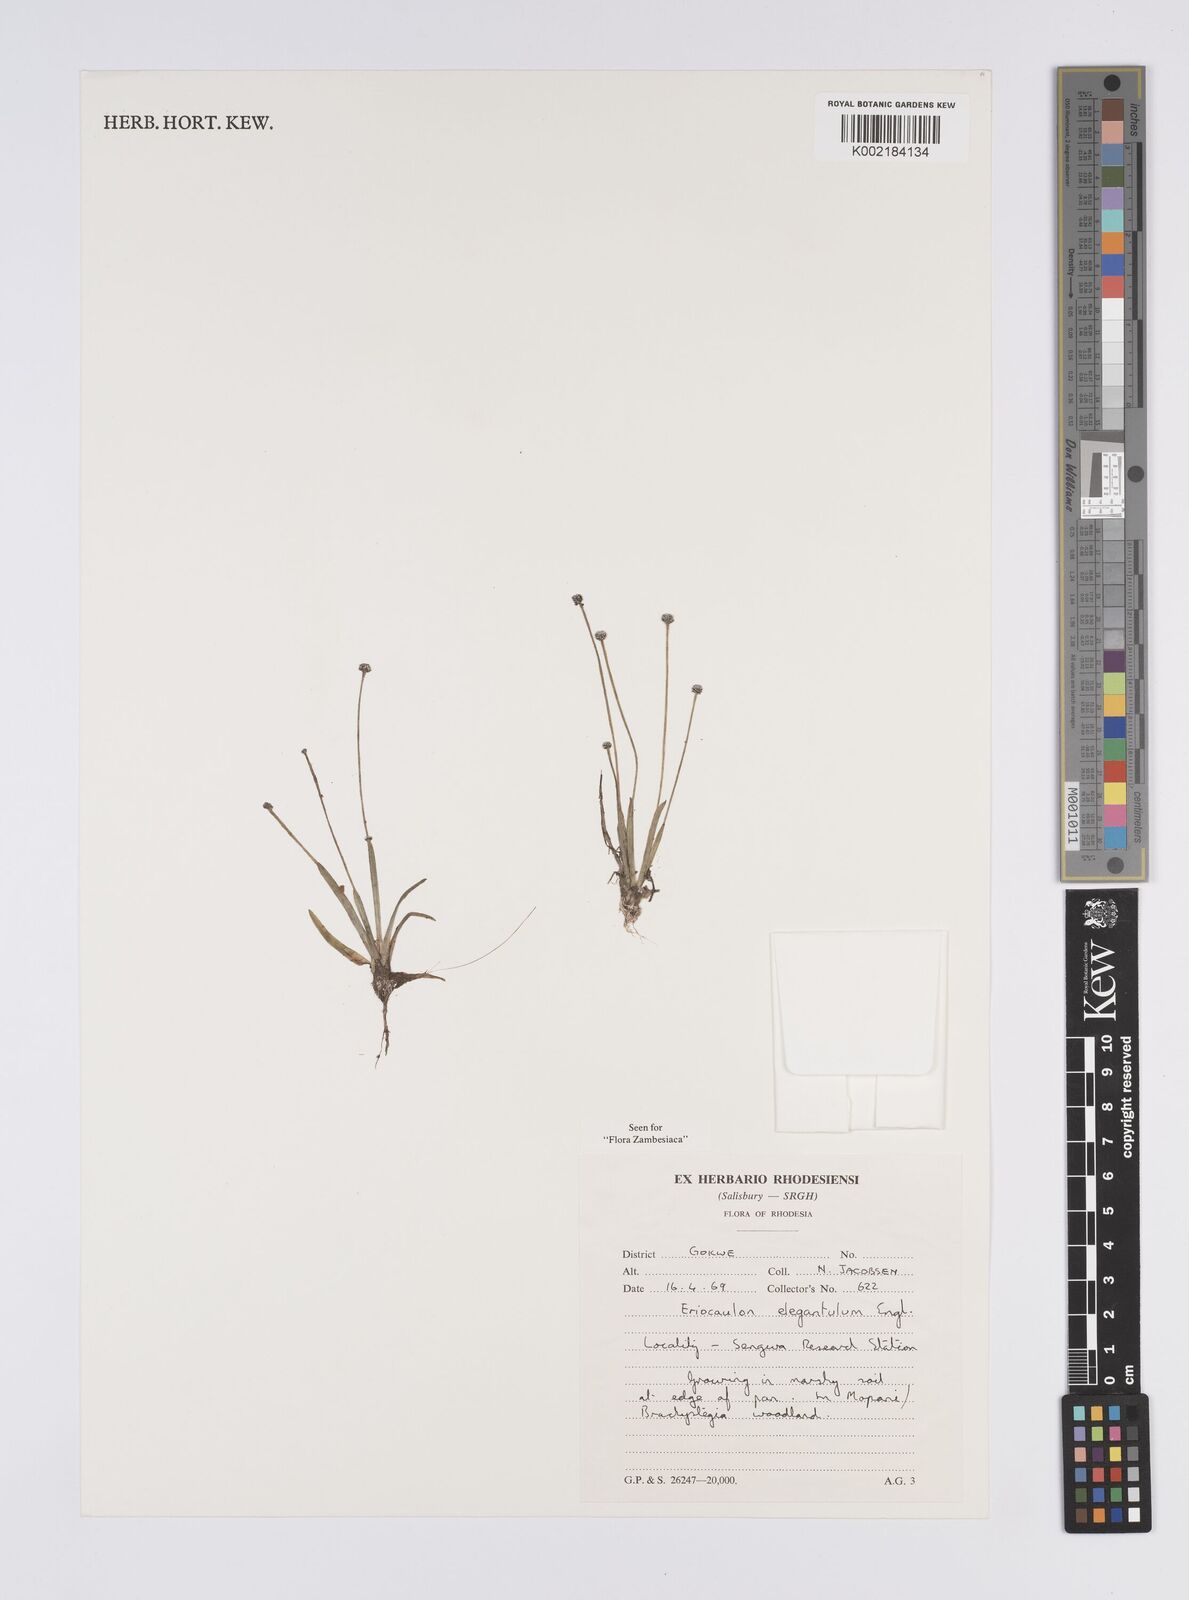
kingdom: Plantae
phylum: Tracheophyta
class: Liliopsida
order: Poales
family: Eriocaulaceae
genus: Eriocaulon
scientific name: Eriocaulon elegantulum
